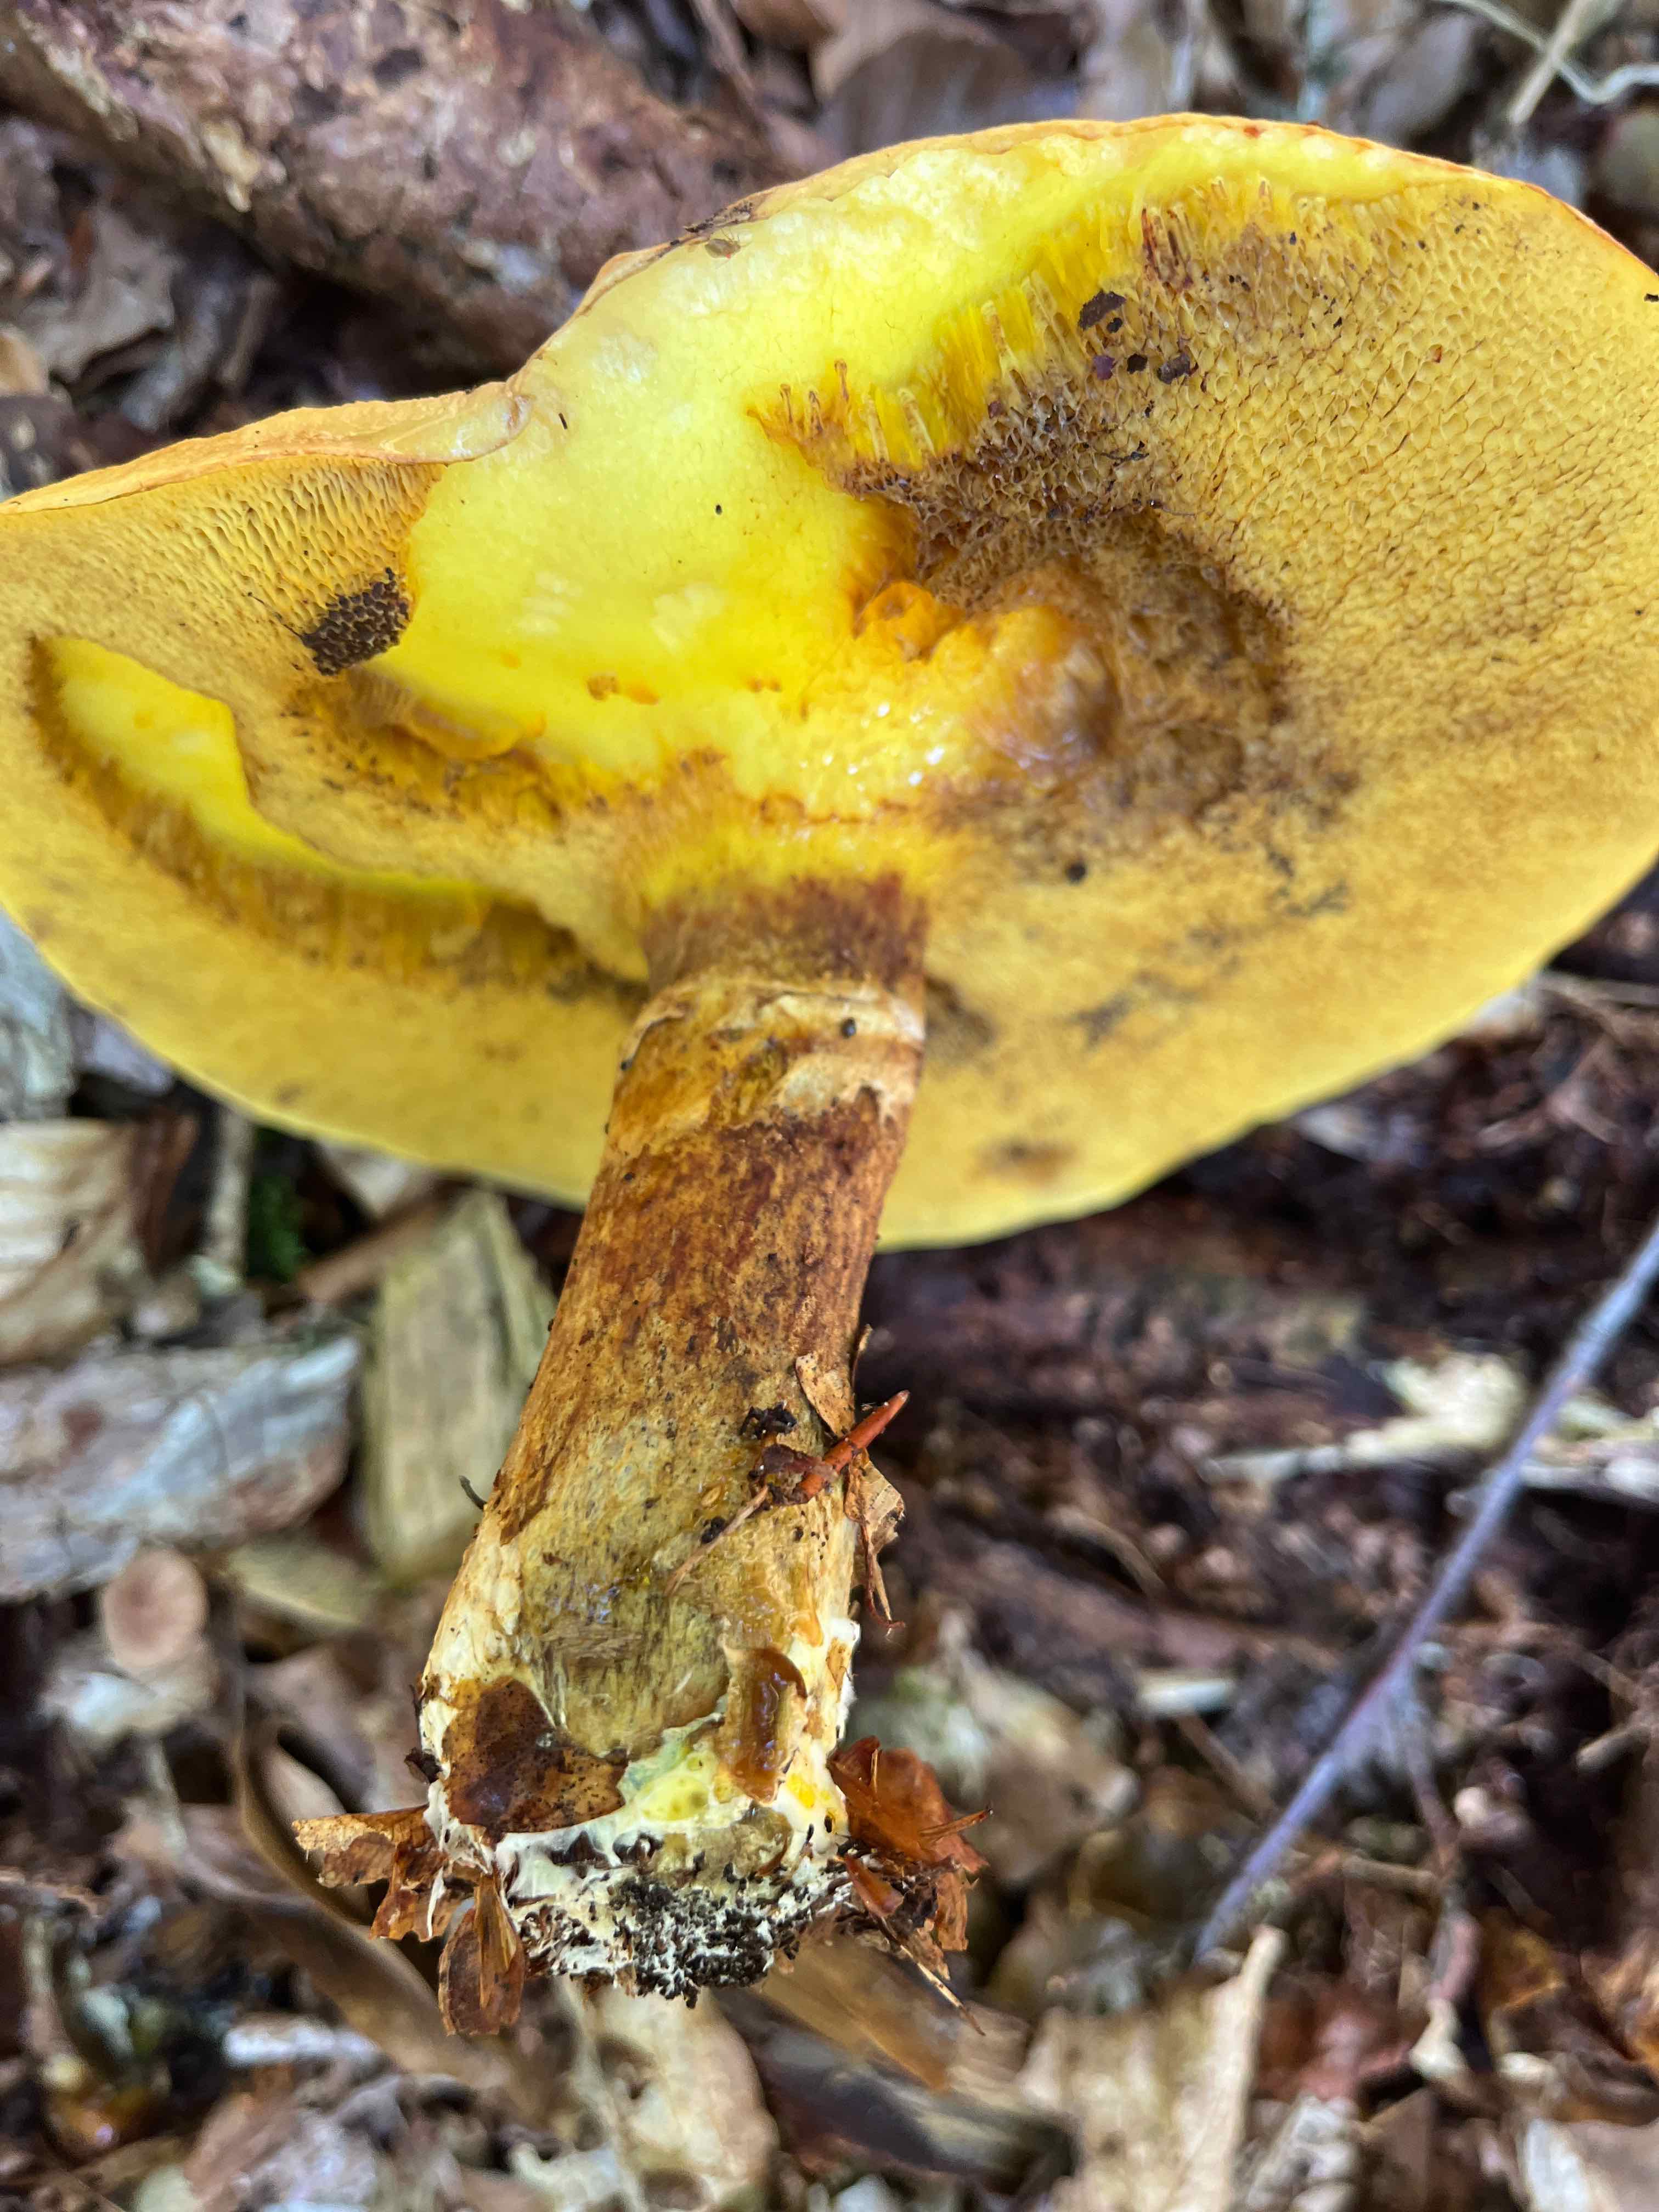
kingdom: Fungi
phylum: Basidiomycota
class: Agaricomycetes
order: Boletales
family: Suillaceae
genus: Suillus
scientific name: Suillus grevillei
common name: lærke-slimrørhat
